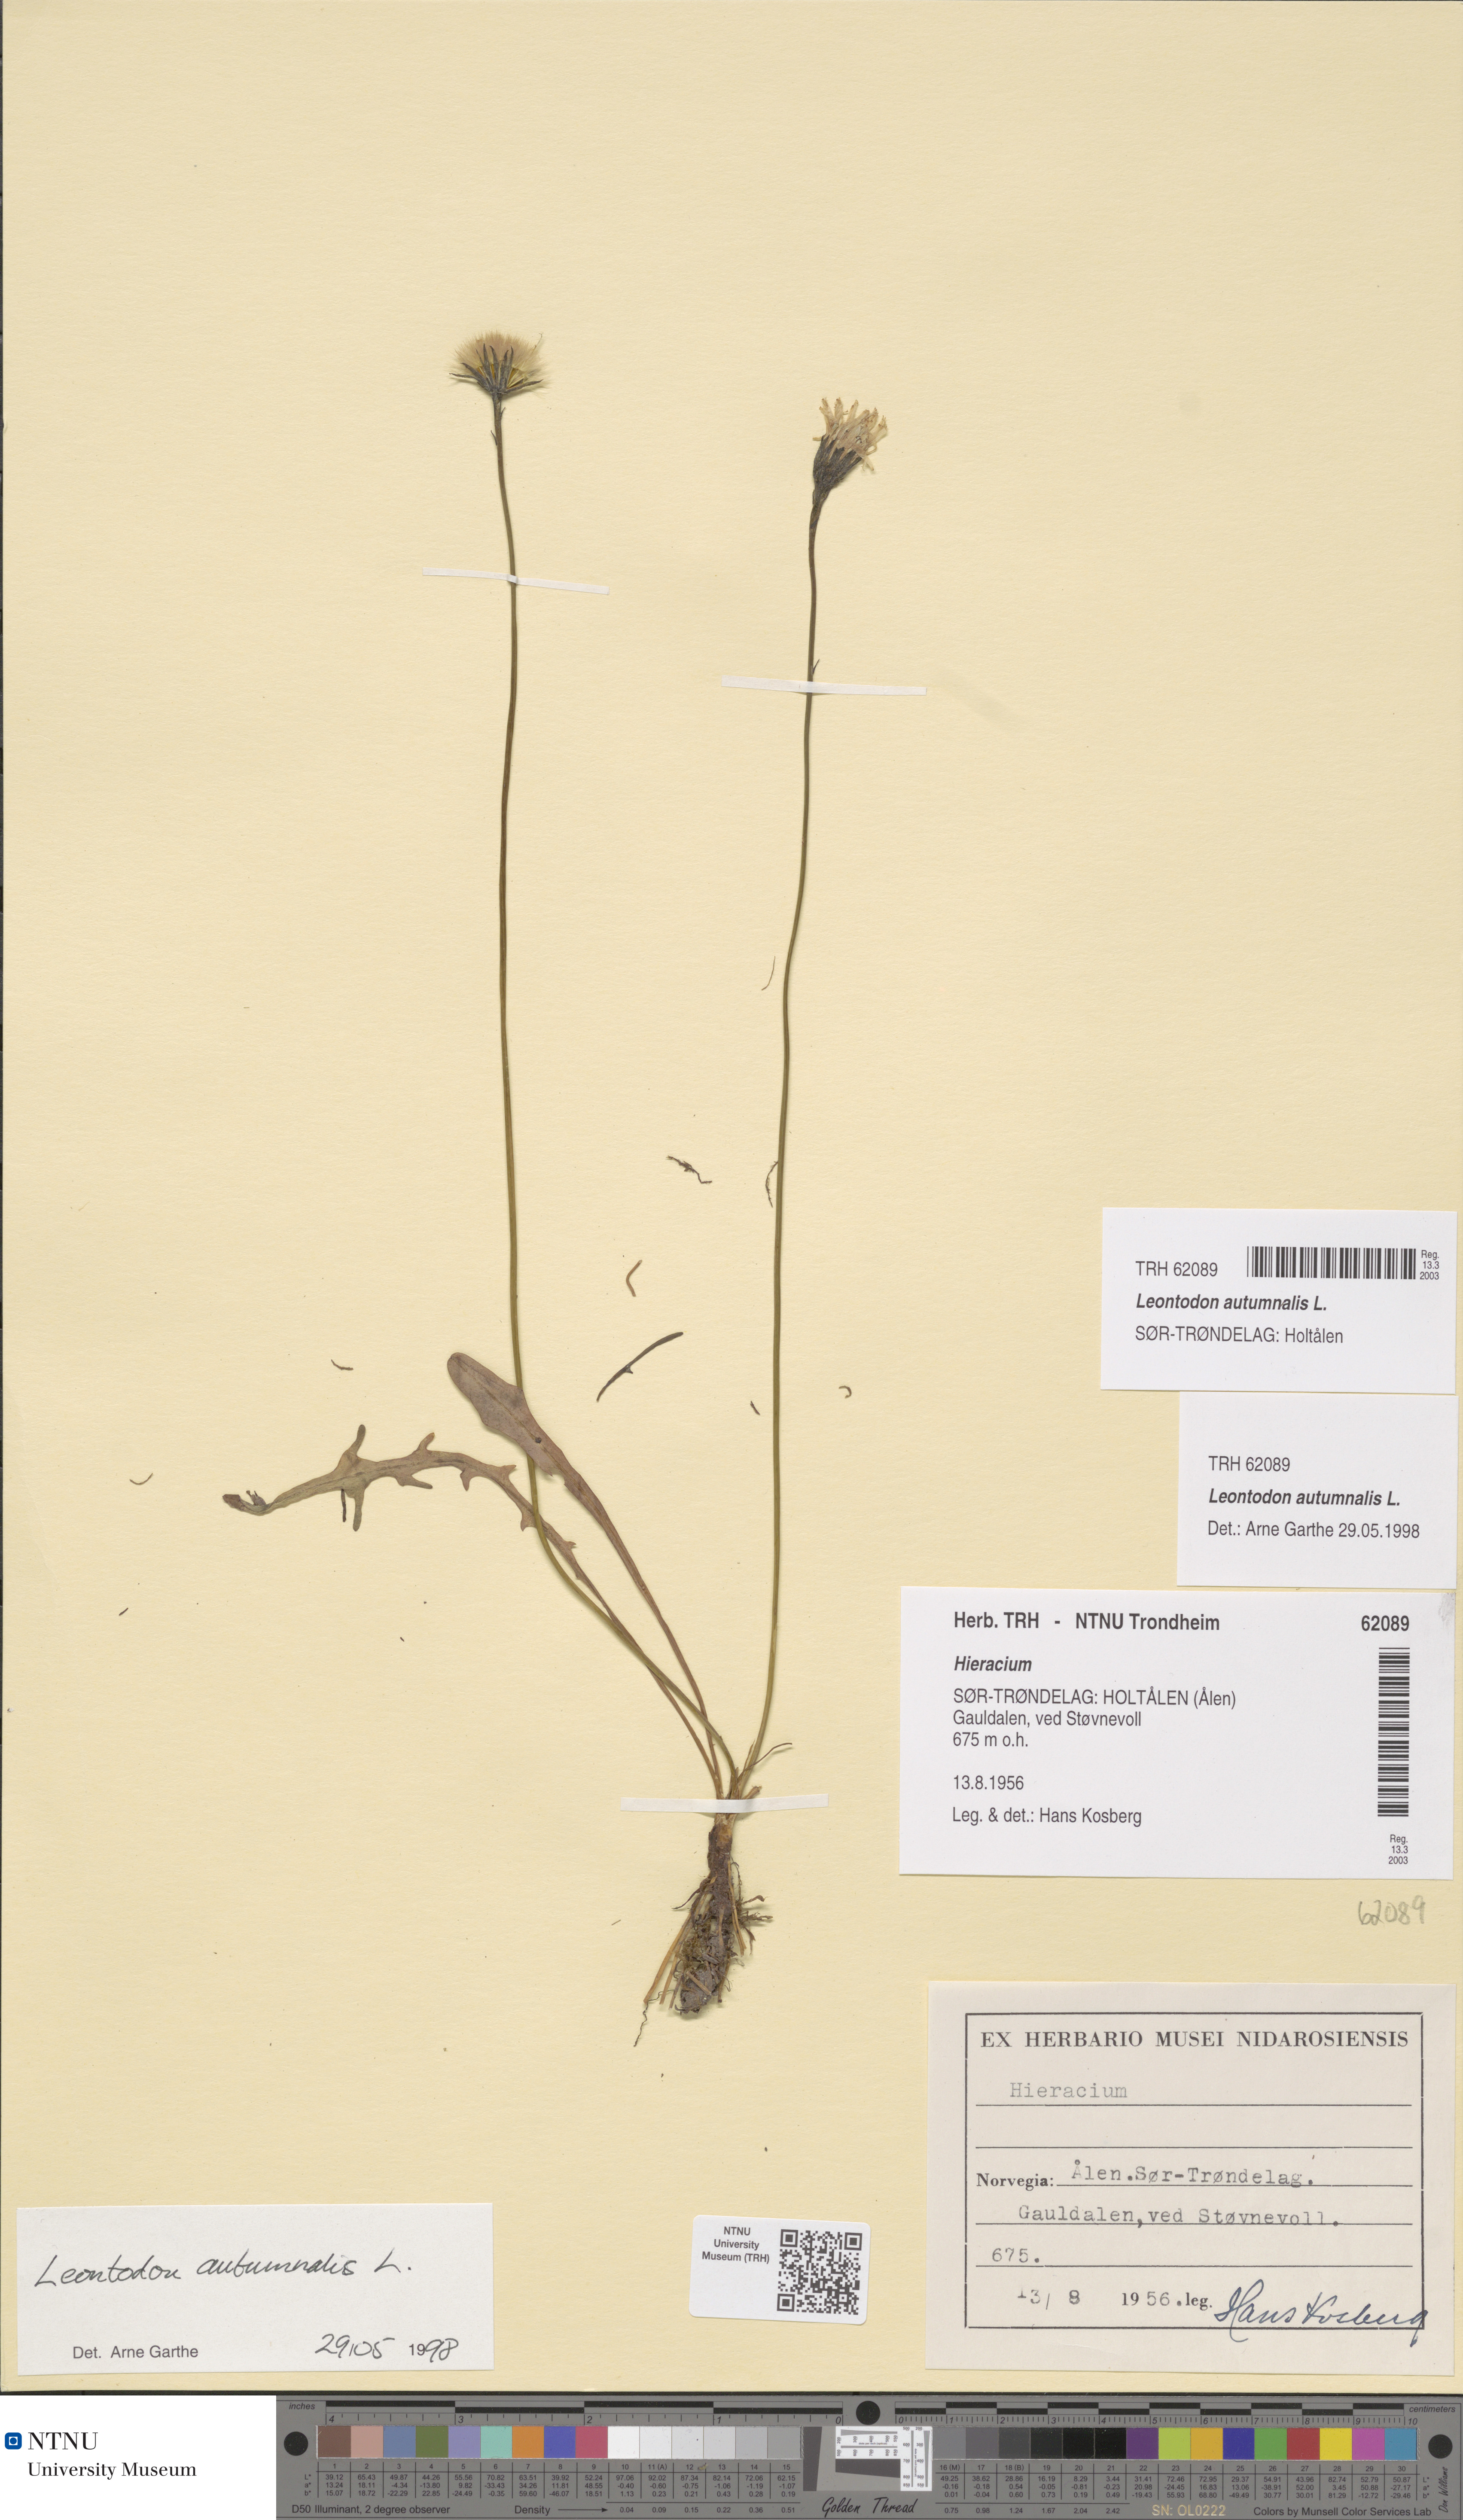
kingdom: Plantae
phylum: Tracheophyta
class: Magnoliopsida
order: Asterales
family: Asteraceae
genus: Scorzoneroides
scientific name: Scorzoneroides autumnalis
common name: Autumn hawkbit
